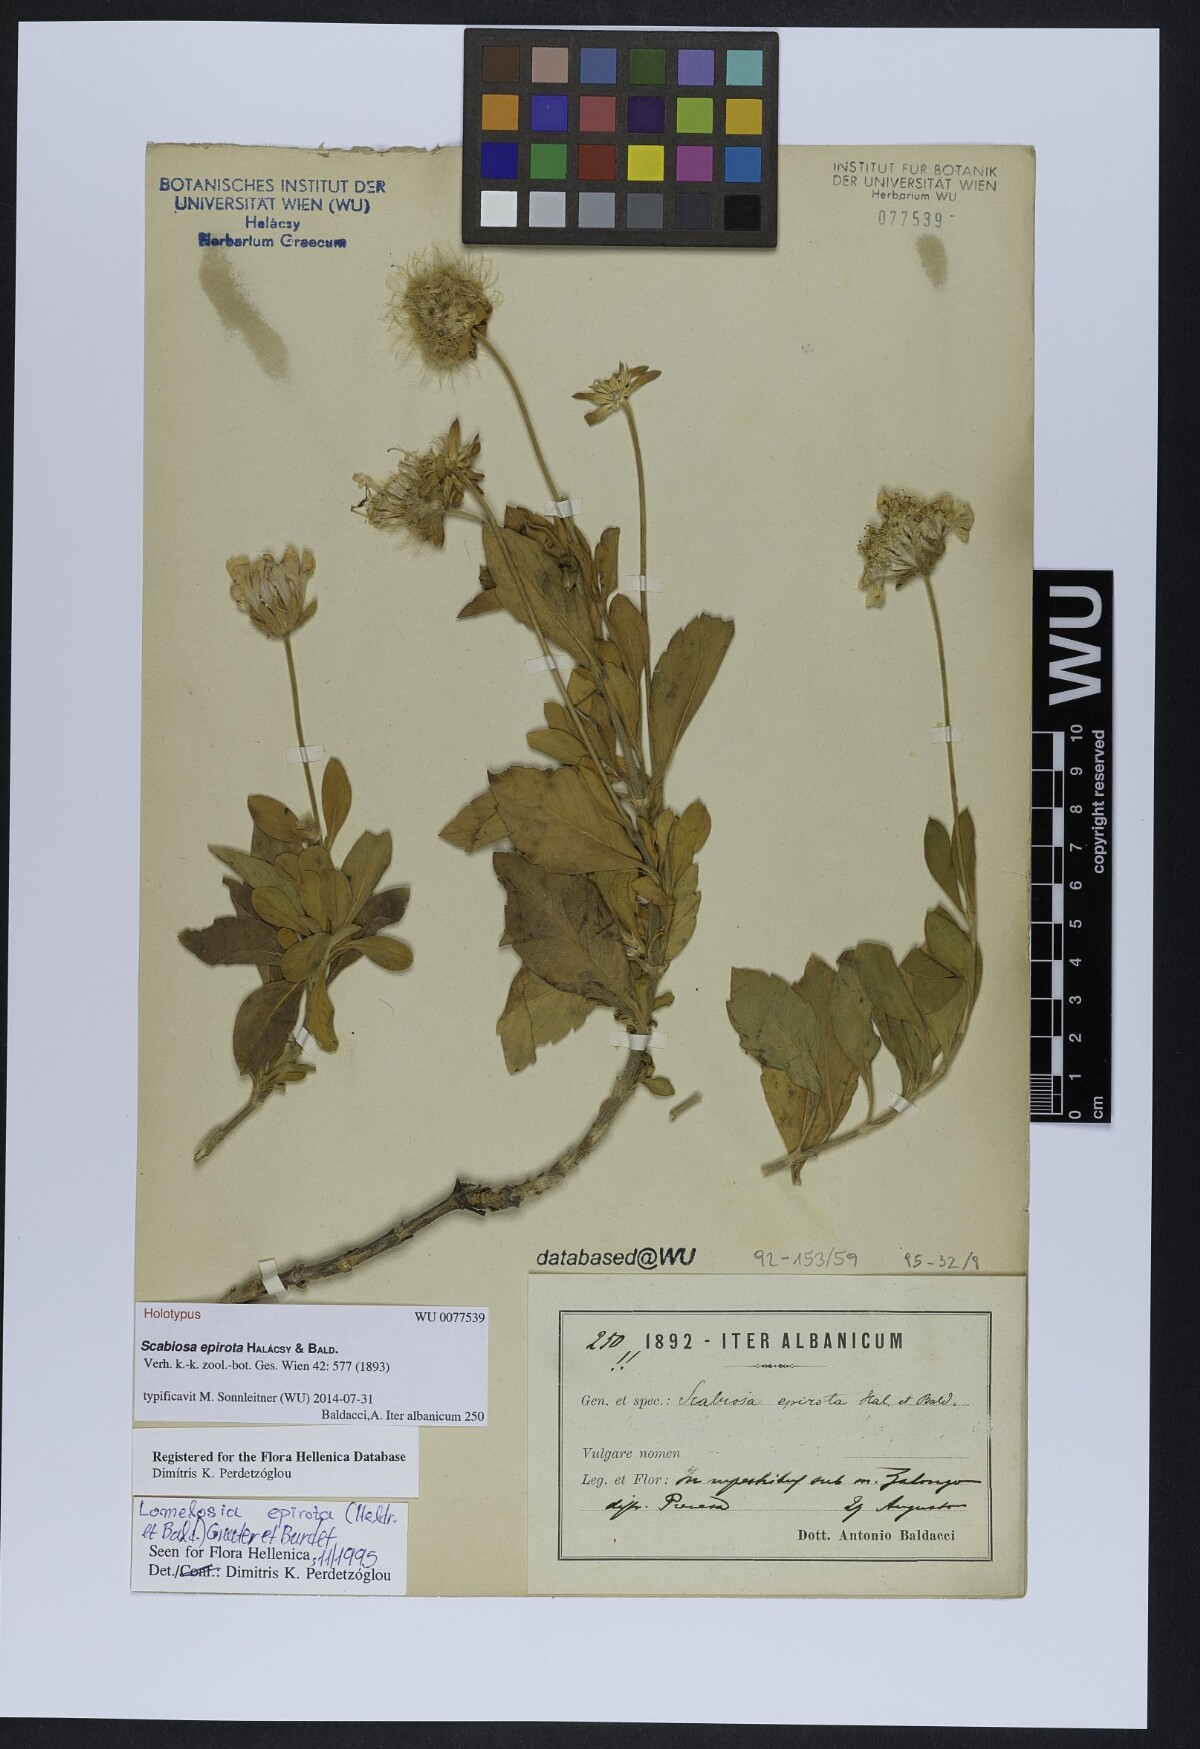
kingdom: Plantae
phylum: Tracheophyta
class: Magnoliopsida
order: Dipsacales
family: Caprifoliaceae
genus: Lomelosia
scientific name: Lomelosia epirota
